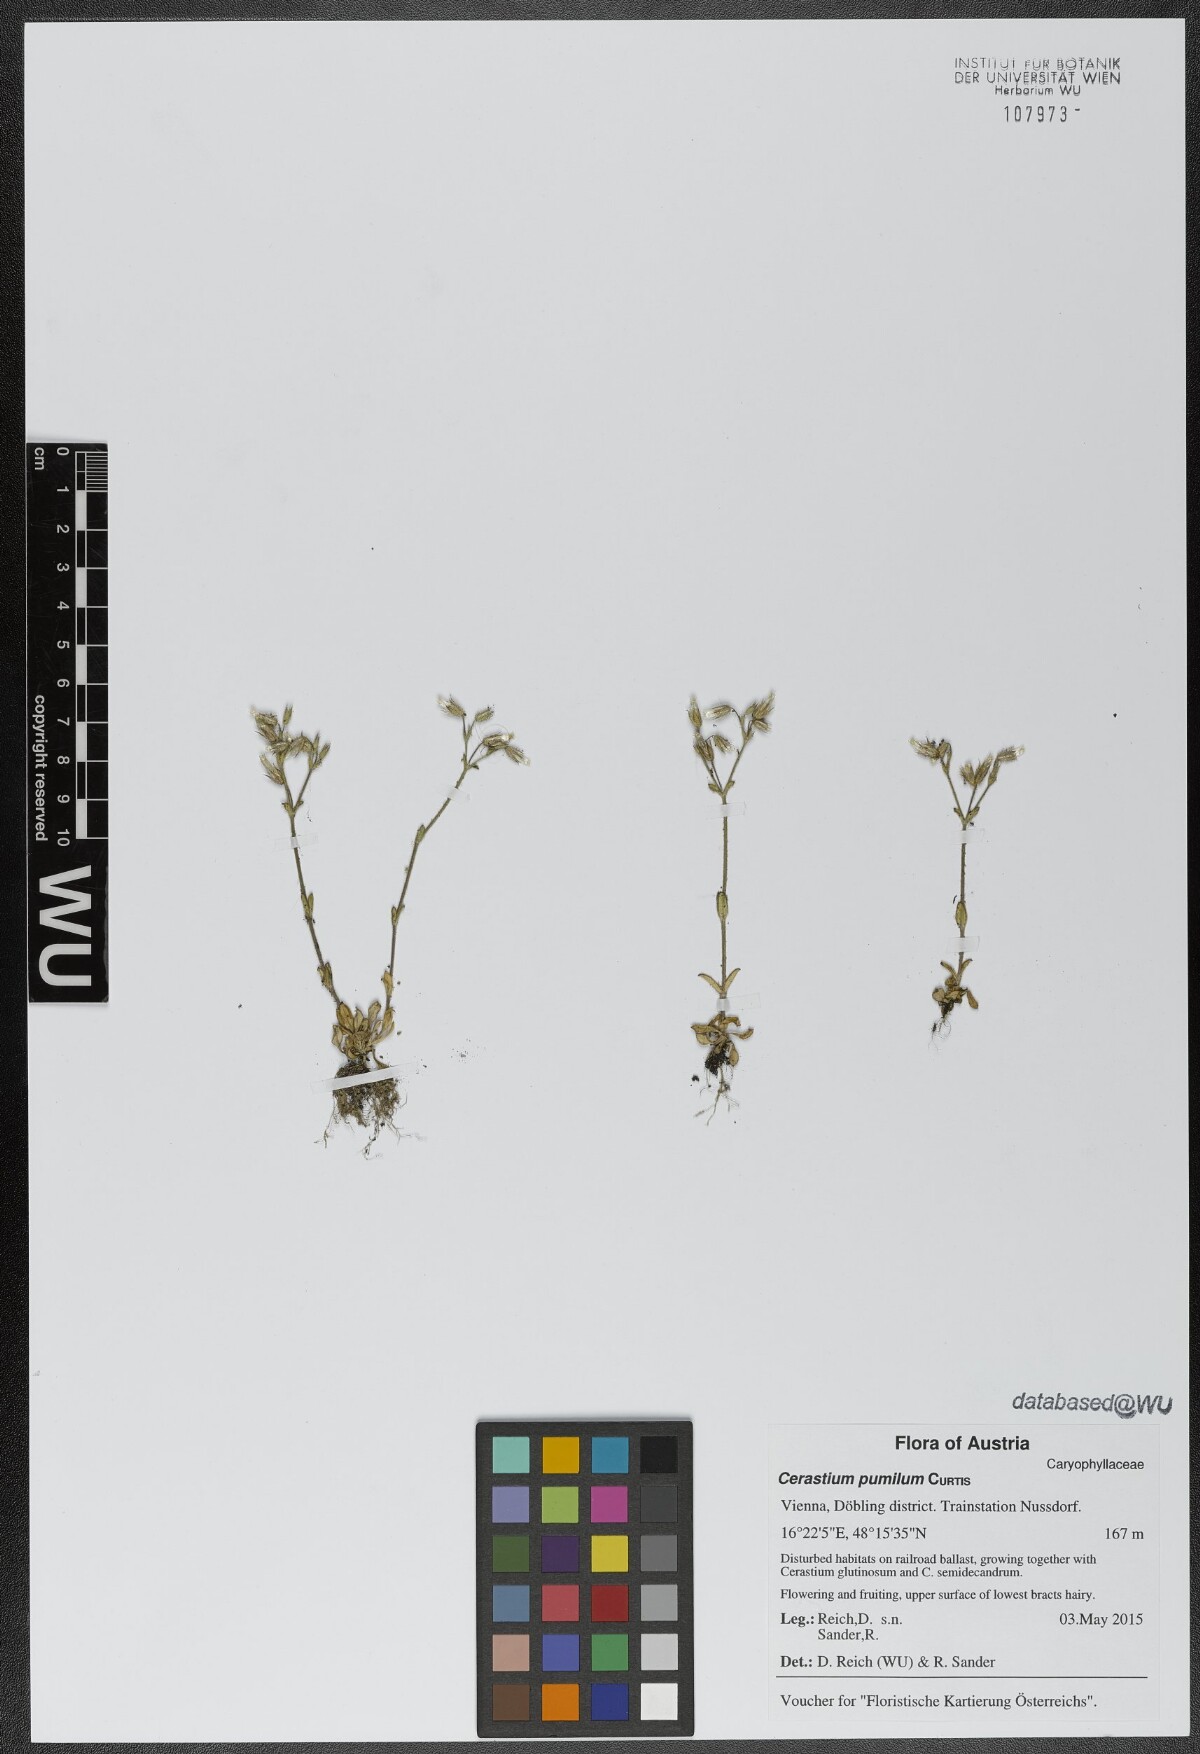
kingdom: Plantae
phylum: Tracheophyta
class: Magnoliopsida
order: Caryophyllales
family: Caryophyllaceae
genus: Cerastium
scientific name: Cerastium pumilum
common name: Dwarf mouse-ear
